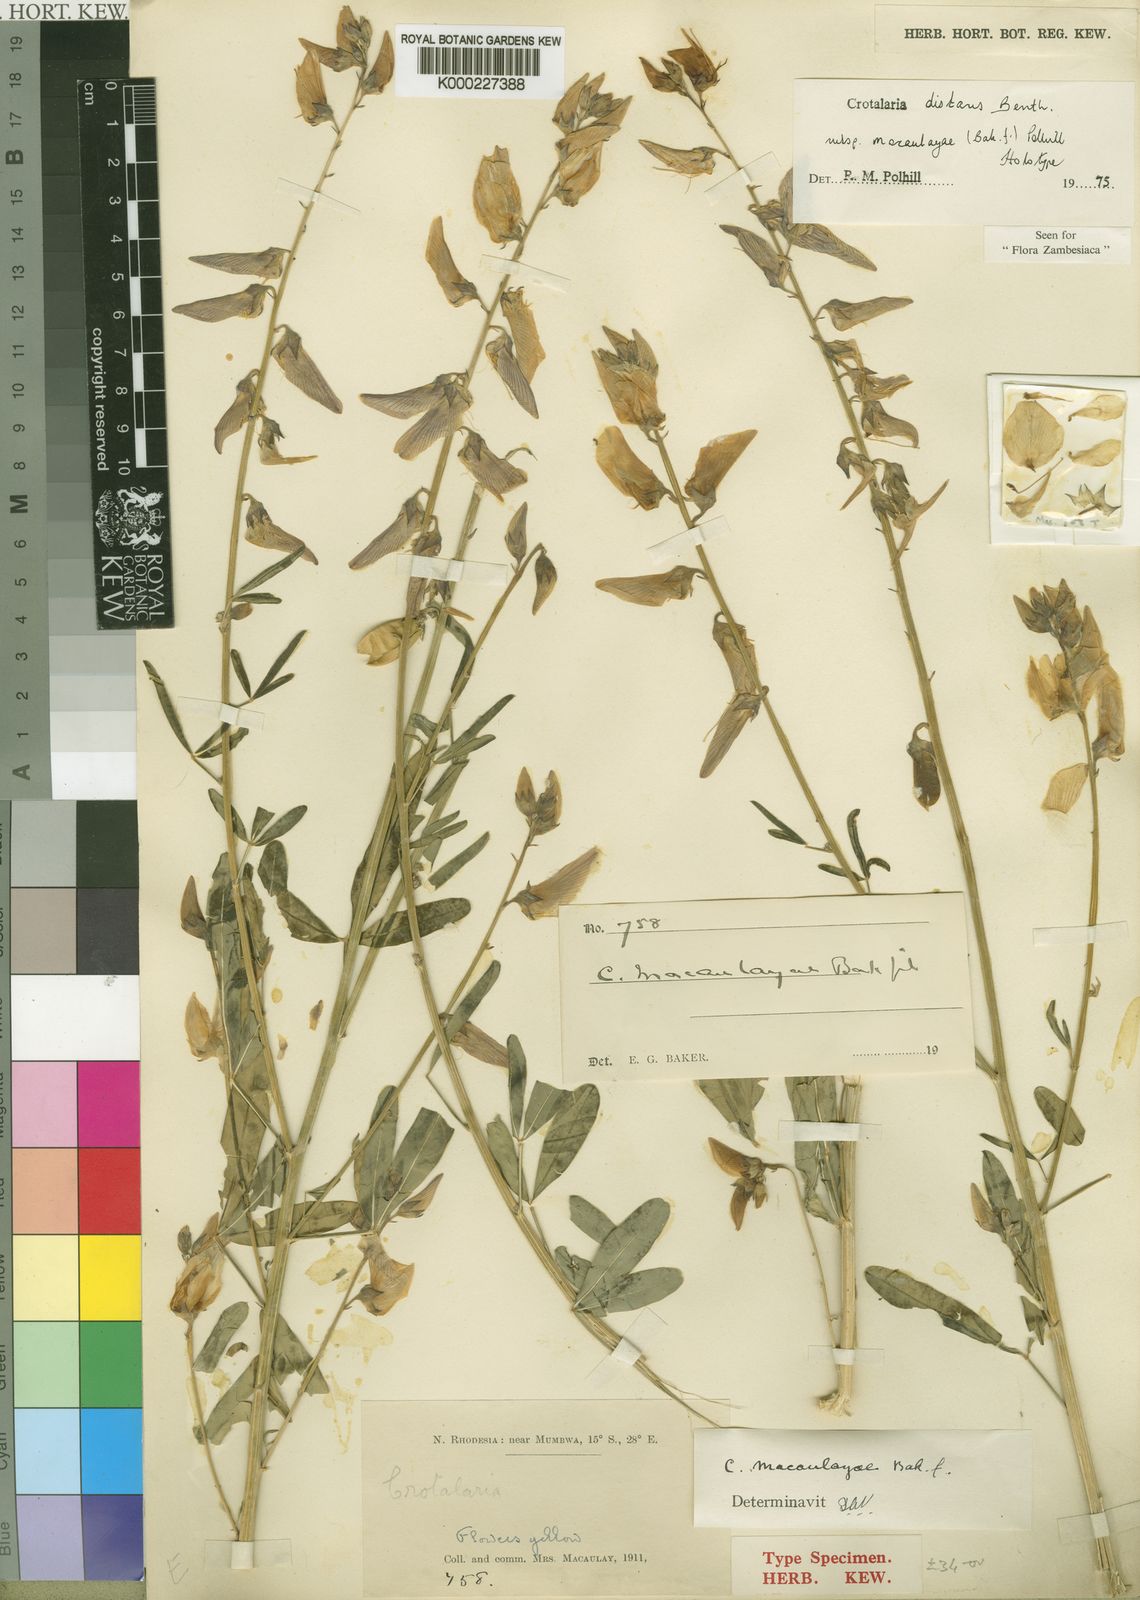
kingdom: Plantae
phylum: Tracheophyta
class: Magnoliopsida
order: Fabales
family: Fabaceae
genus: Crotalaria
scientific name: Crotalaria distans
